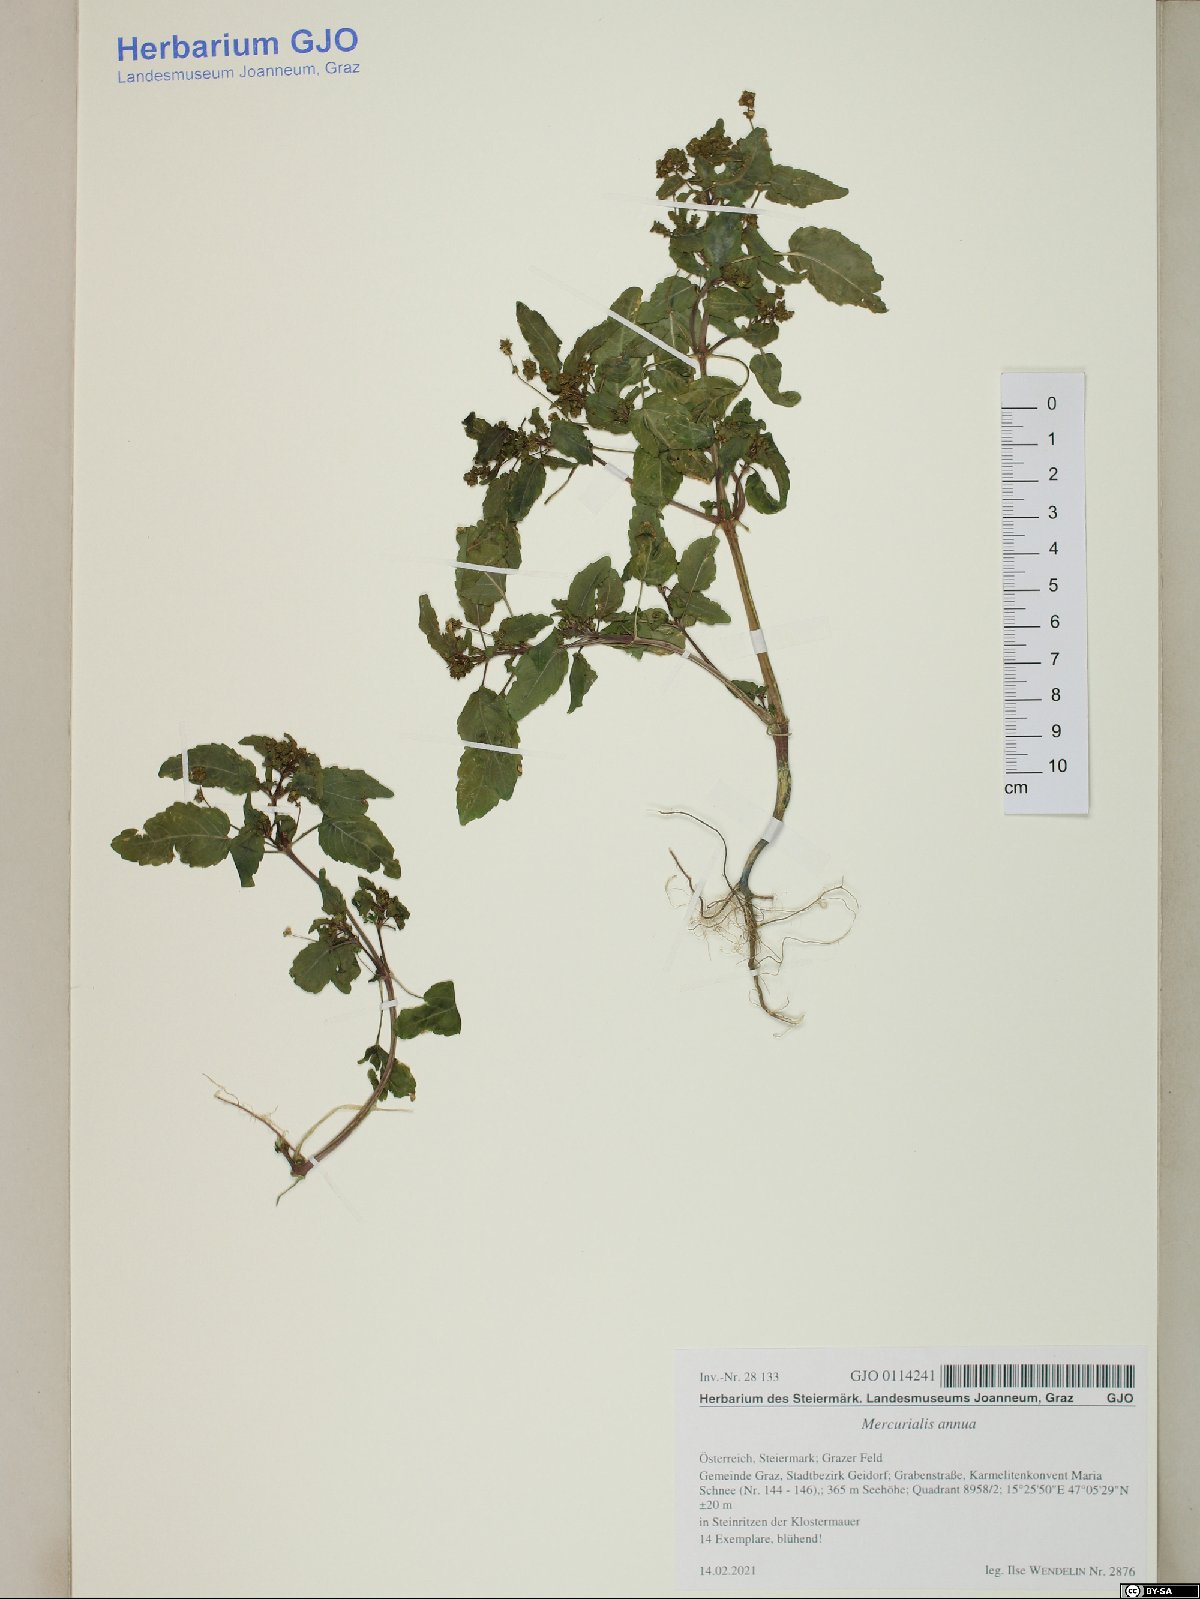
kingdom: Plantae
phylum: Tracheophyta
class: Magnoliopsida
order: Malpighiales
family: Euphorbiaceae
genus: Mercurialis
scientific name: Mercurialis annua
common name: Annual mercury
